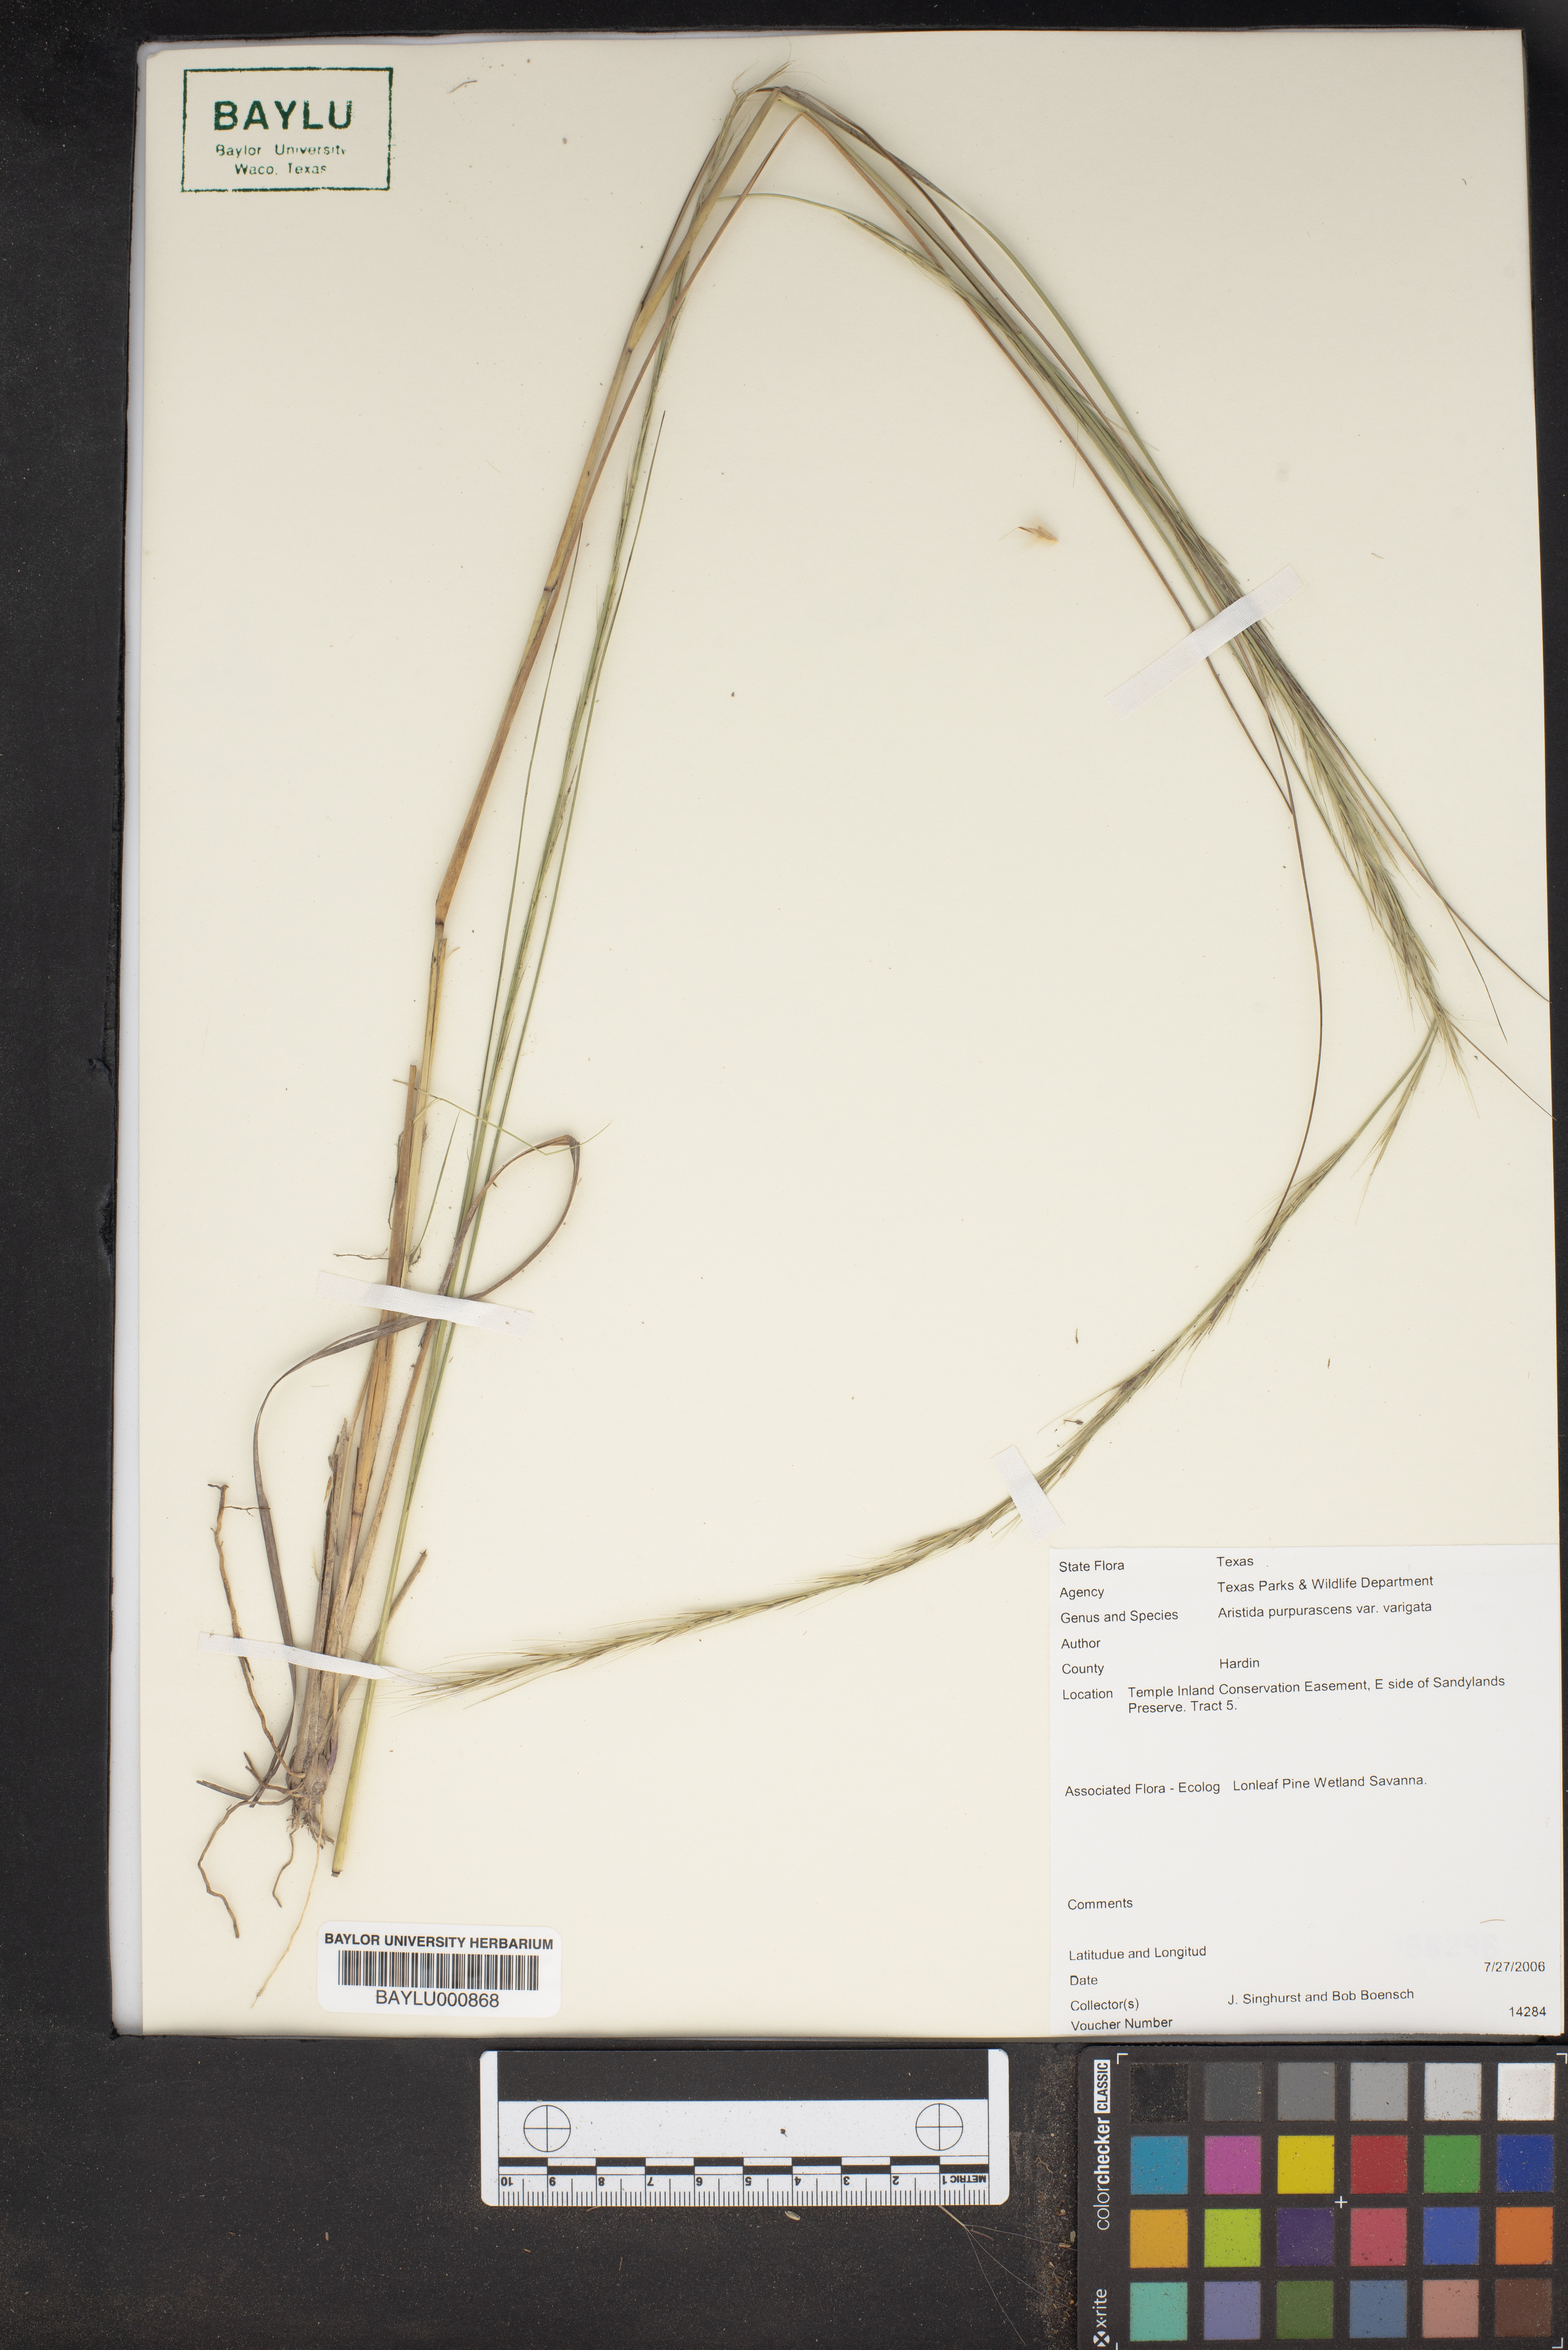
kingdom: Plantae
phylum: Tracheophyta
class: Liliopsida
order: Poales
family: Poaceae
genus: Aristida
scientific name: Aristida virgata
